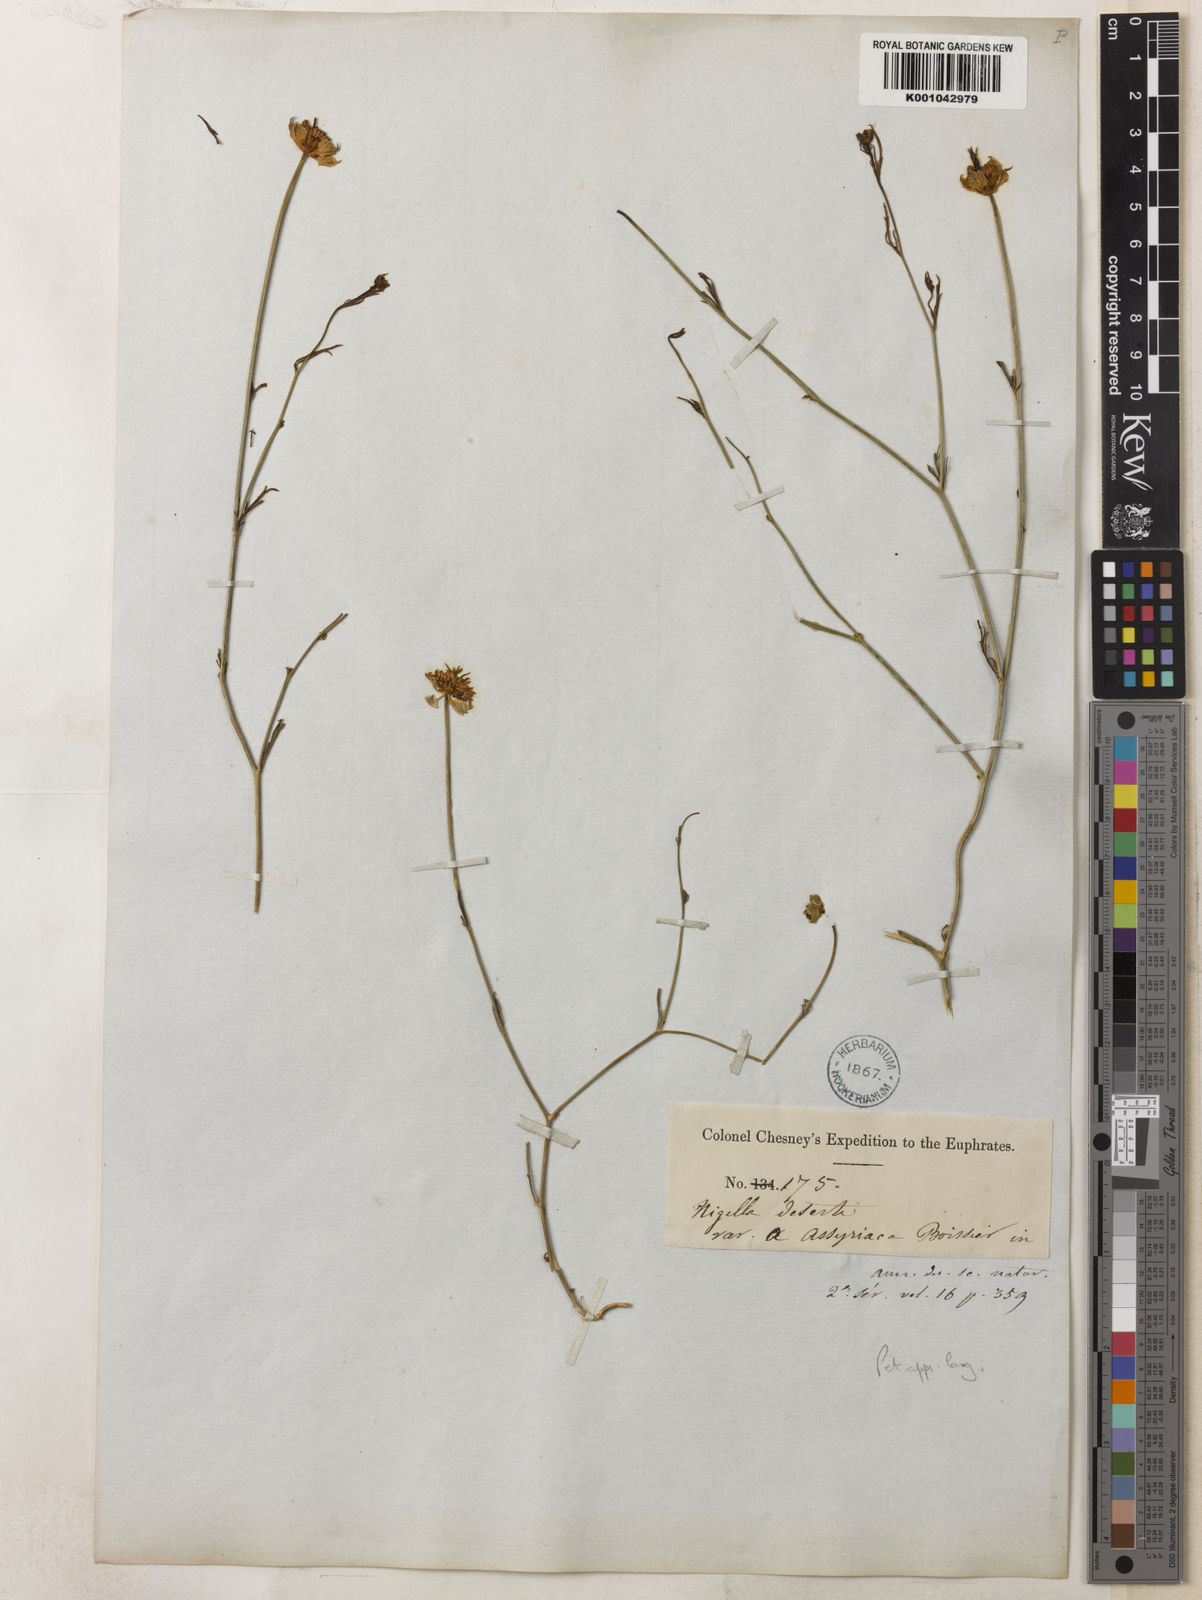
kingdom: Plantae
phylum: Tracheophyta
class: Magnoliopsida
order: Ranunculales
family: Ranunculaceae
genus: Nigella
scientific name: Nigella arvensis
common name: Wild fennel-flower
